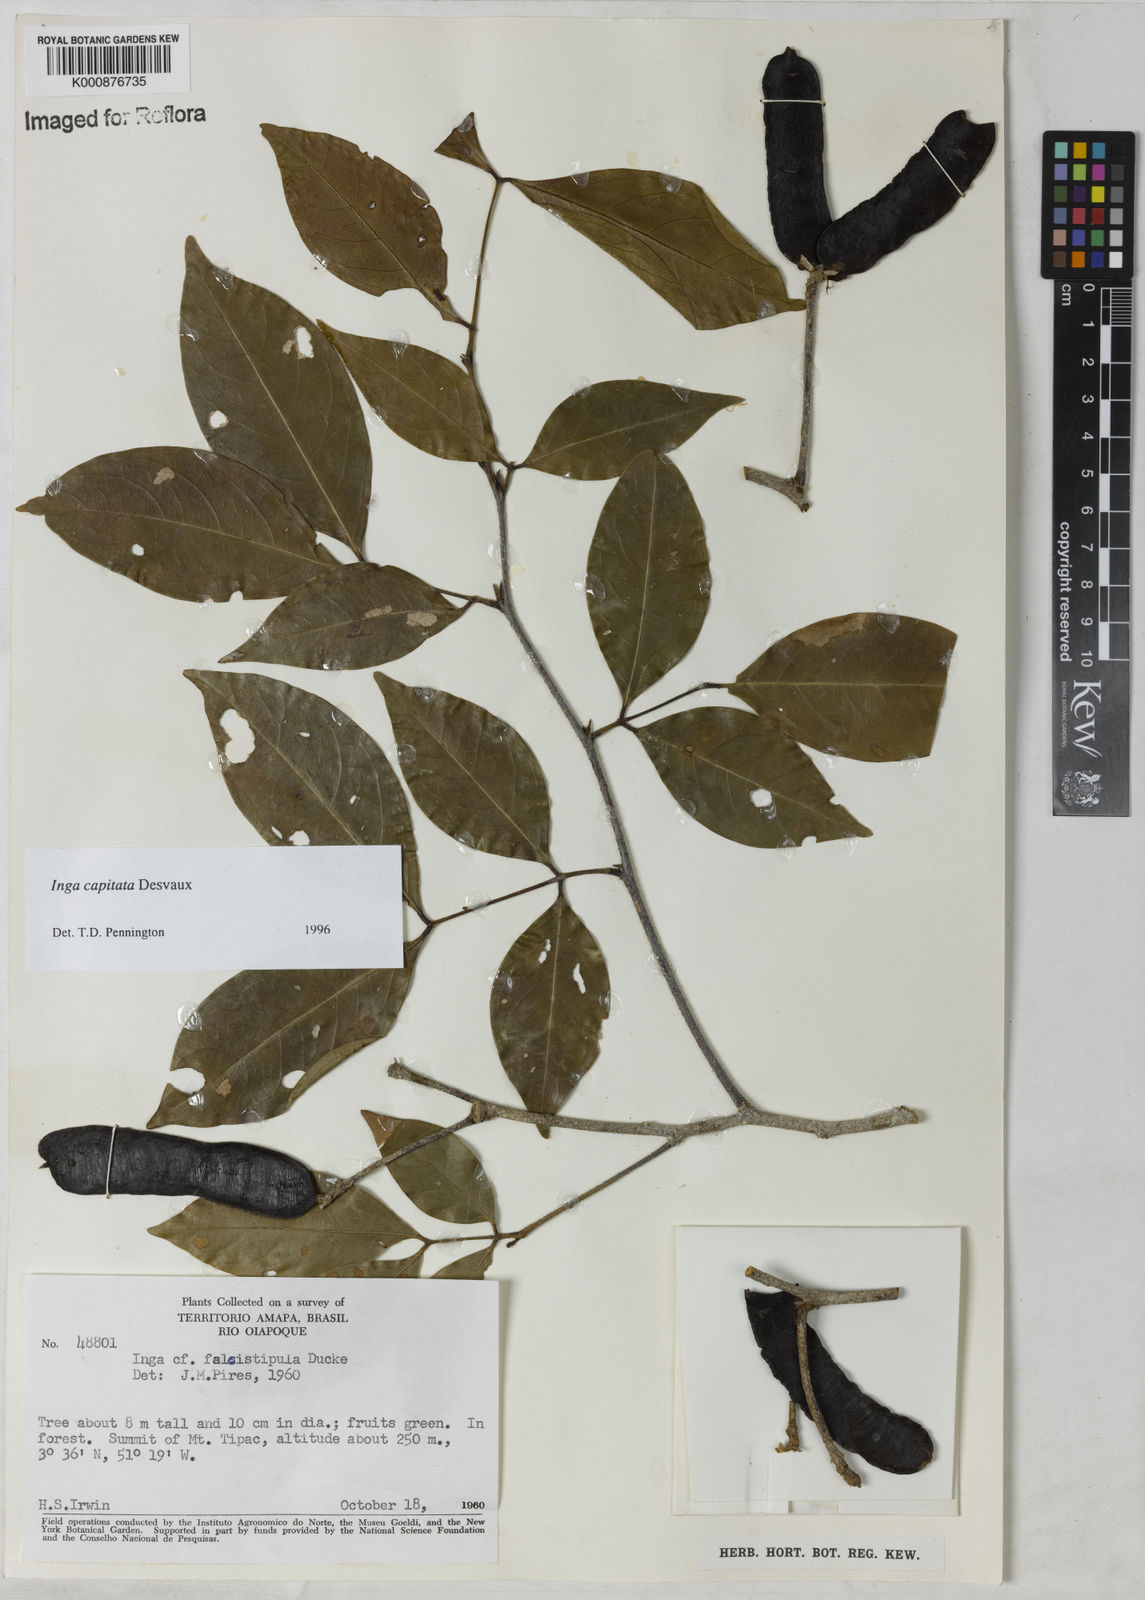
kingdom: Plantae
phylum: Tracheophyta
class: Magnoliopsida
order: Fabales
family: Fabaceae
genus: Inga
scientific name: Inga capitata
